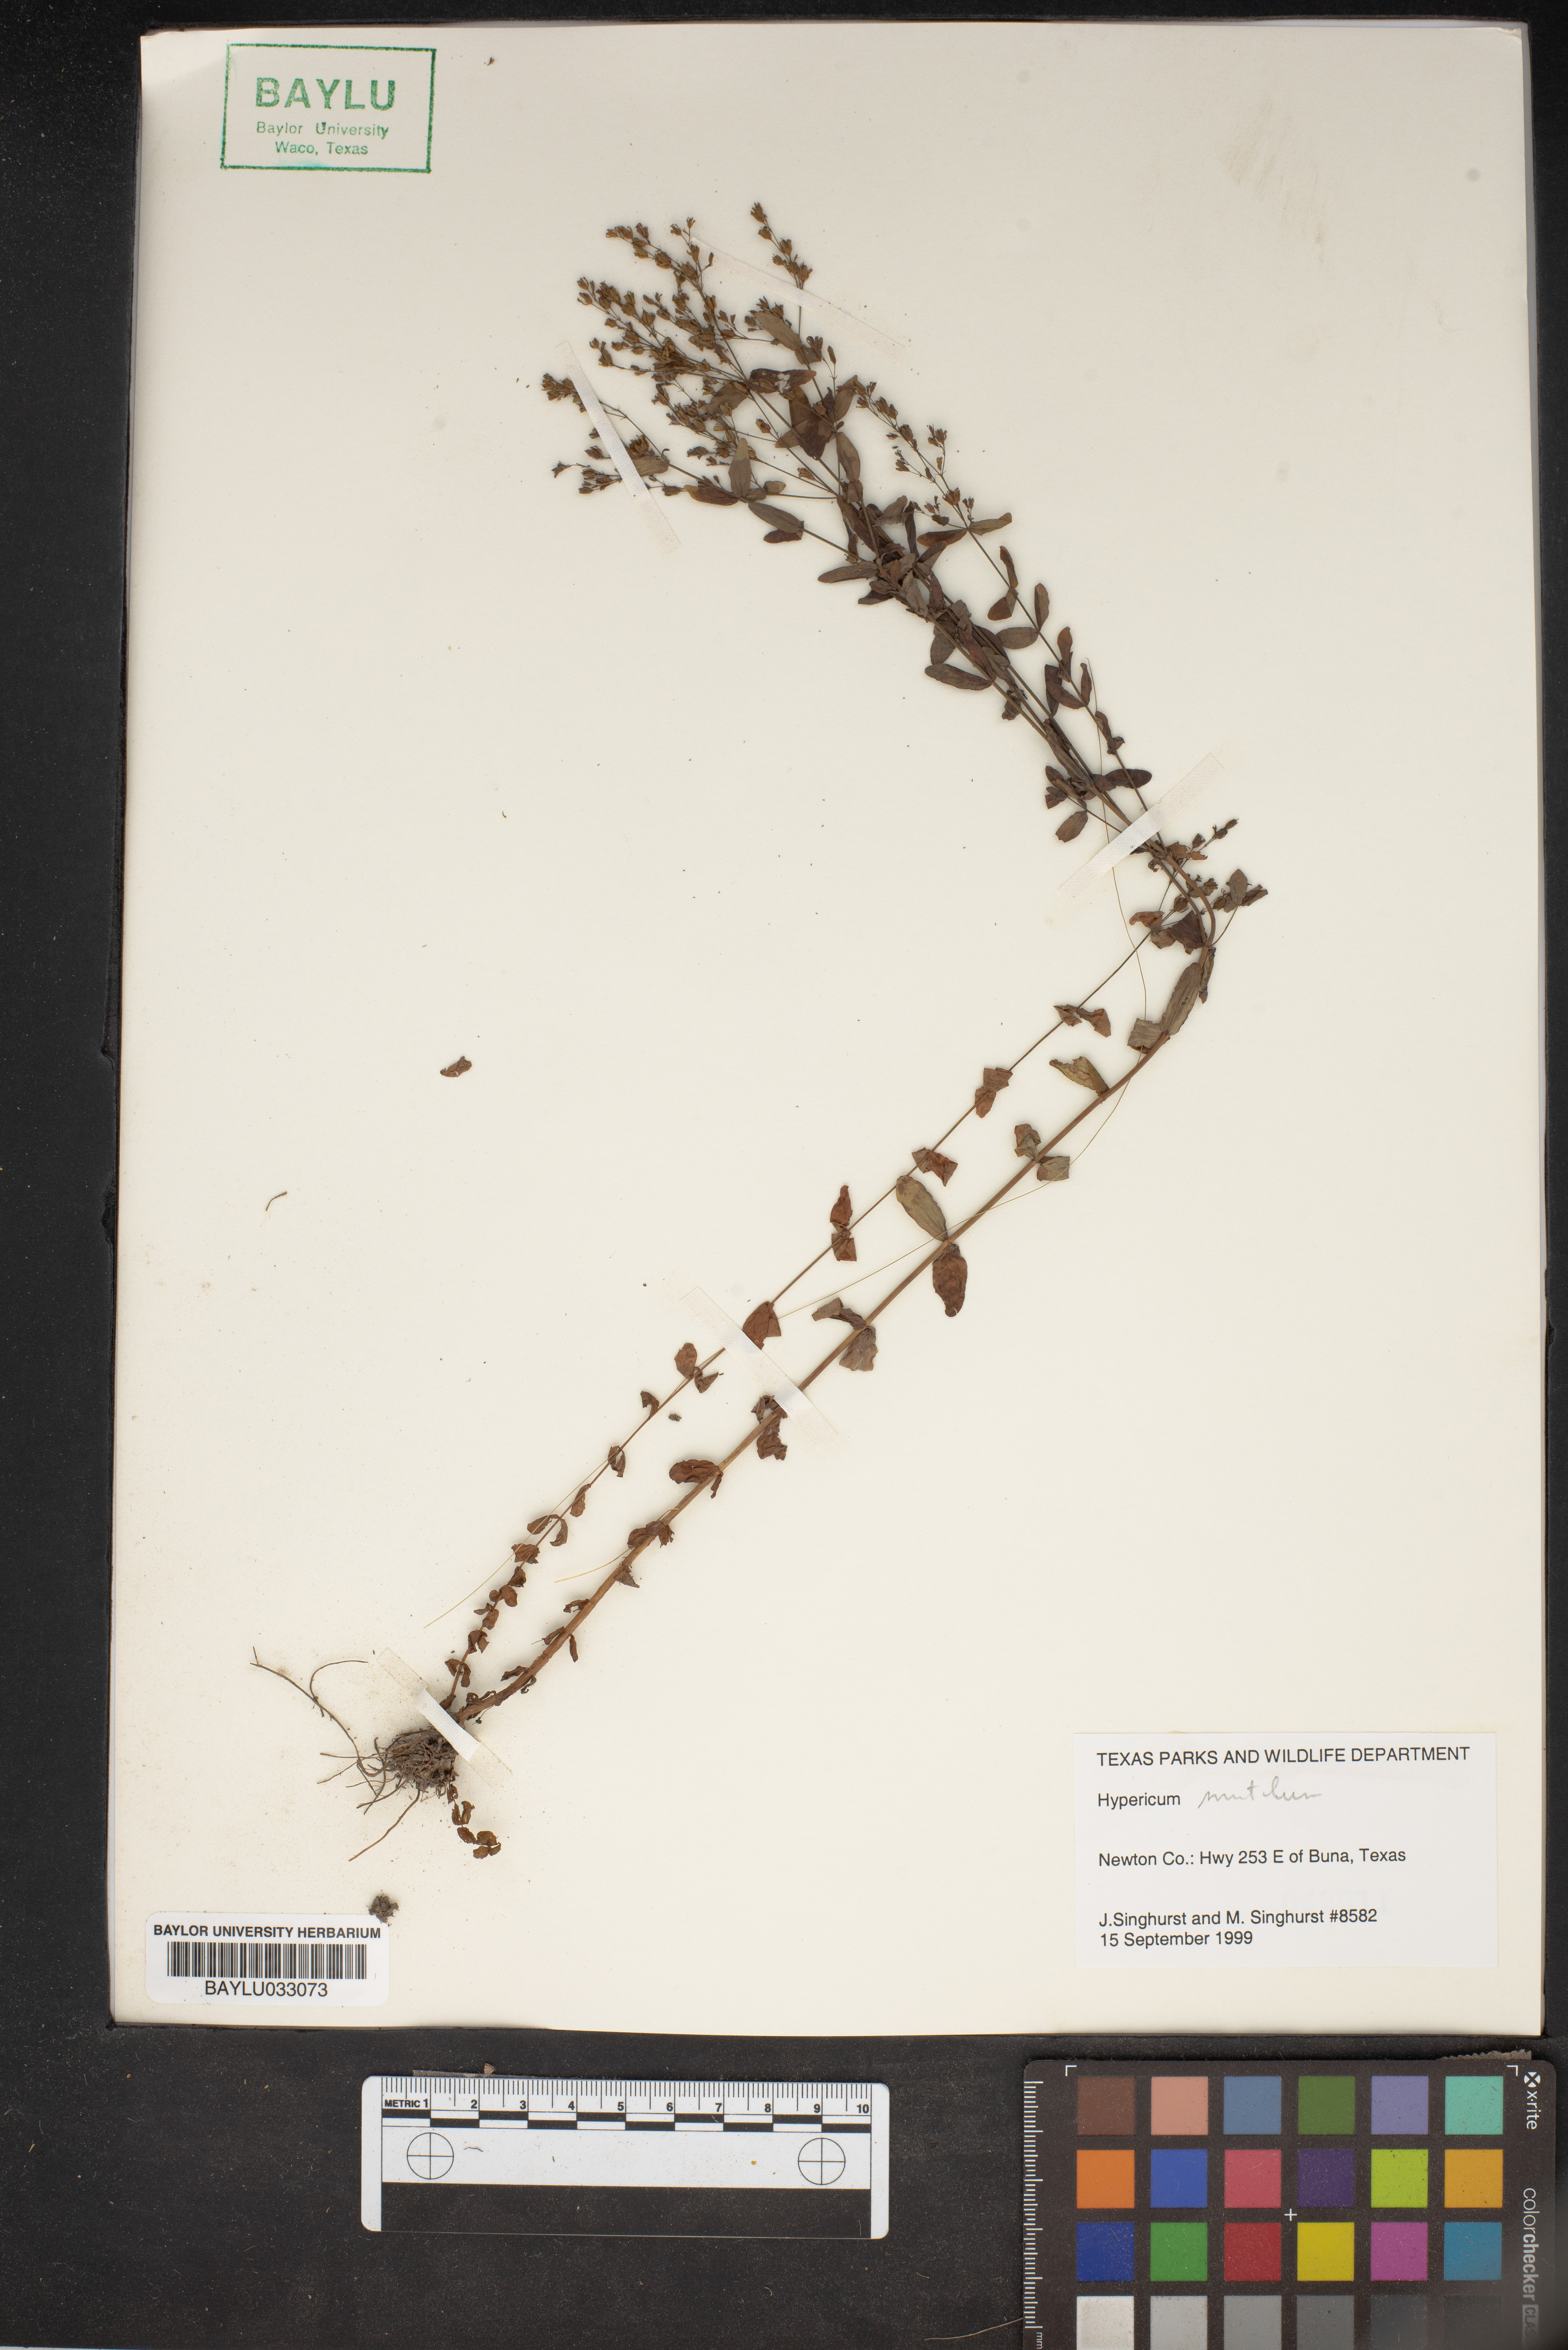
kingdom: Plantae
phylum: Tracheophyta
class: Magnoliopsida
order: Malpighiales
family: Hypericaceae
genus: Hypericum
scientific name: Hypericum mutilum
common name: Dwarf st. john's-wort
